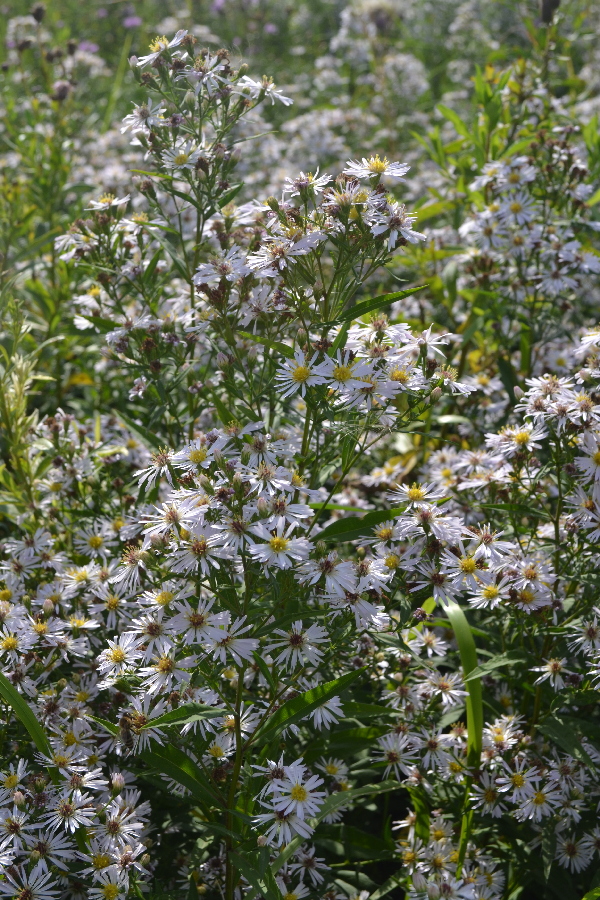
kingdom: Plantae
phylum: Tracheophyta
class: Magnoliopsida
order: Asterales
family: Asteraceae
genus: Erigeron
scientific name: Erigeron annuus
